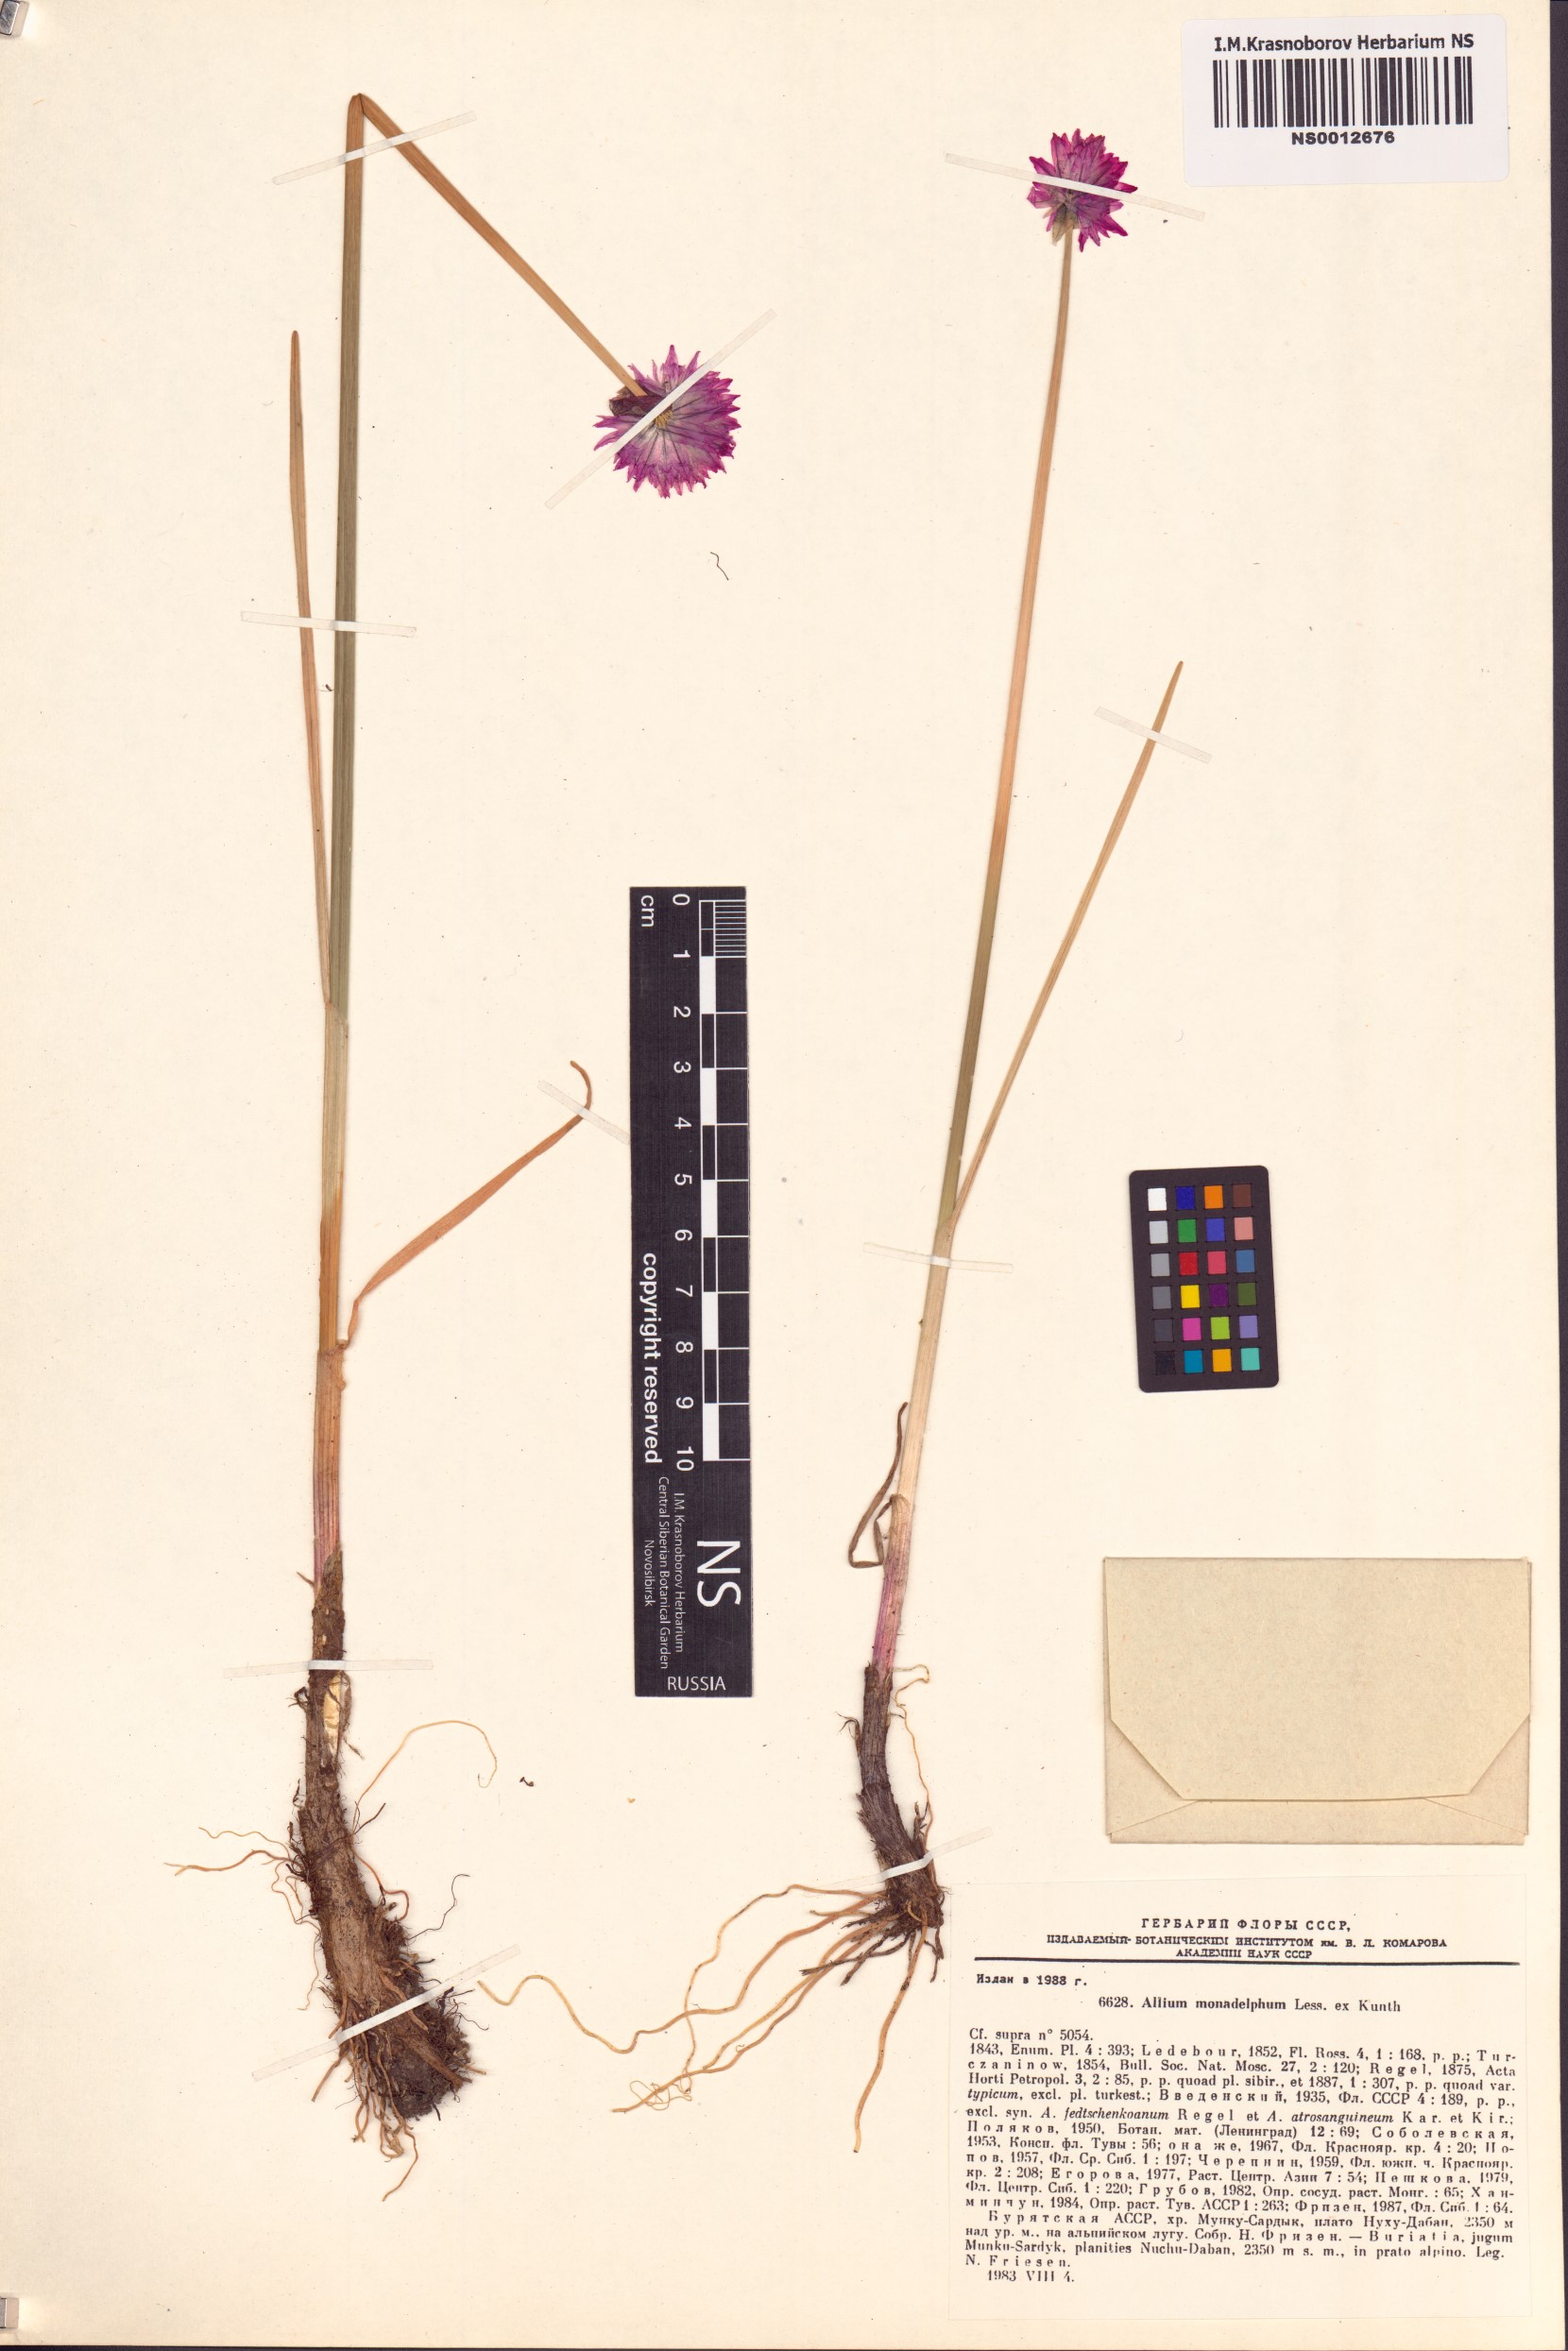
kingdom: Plantae
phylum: Tracheophyta
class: Liliopsida
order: Asparagales
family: Amaryllidaceae
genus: Allium
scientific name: Allium atrosanguineum
